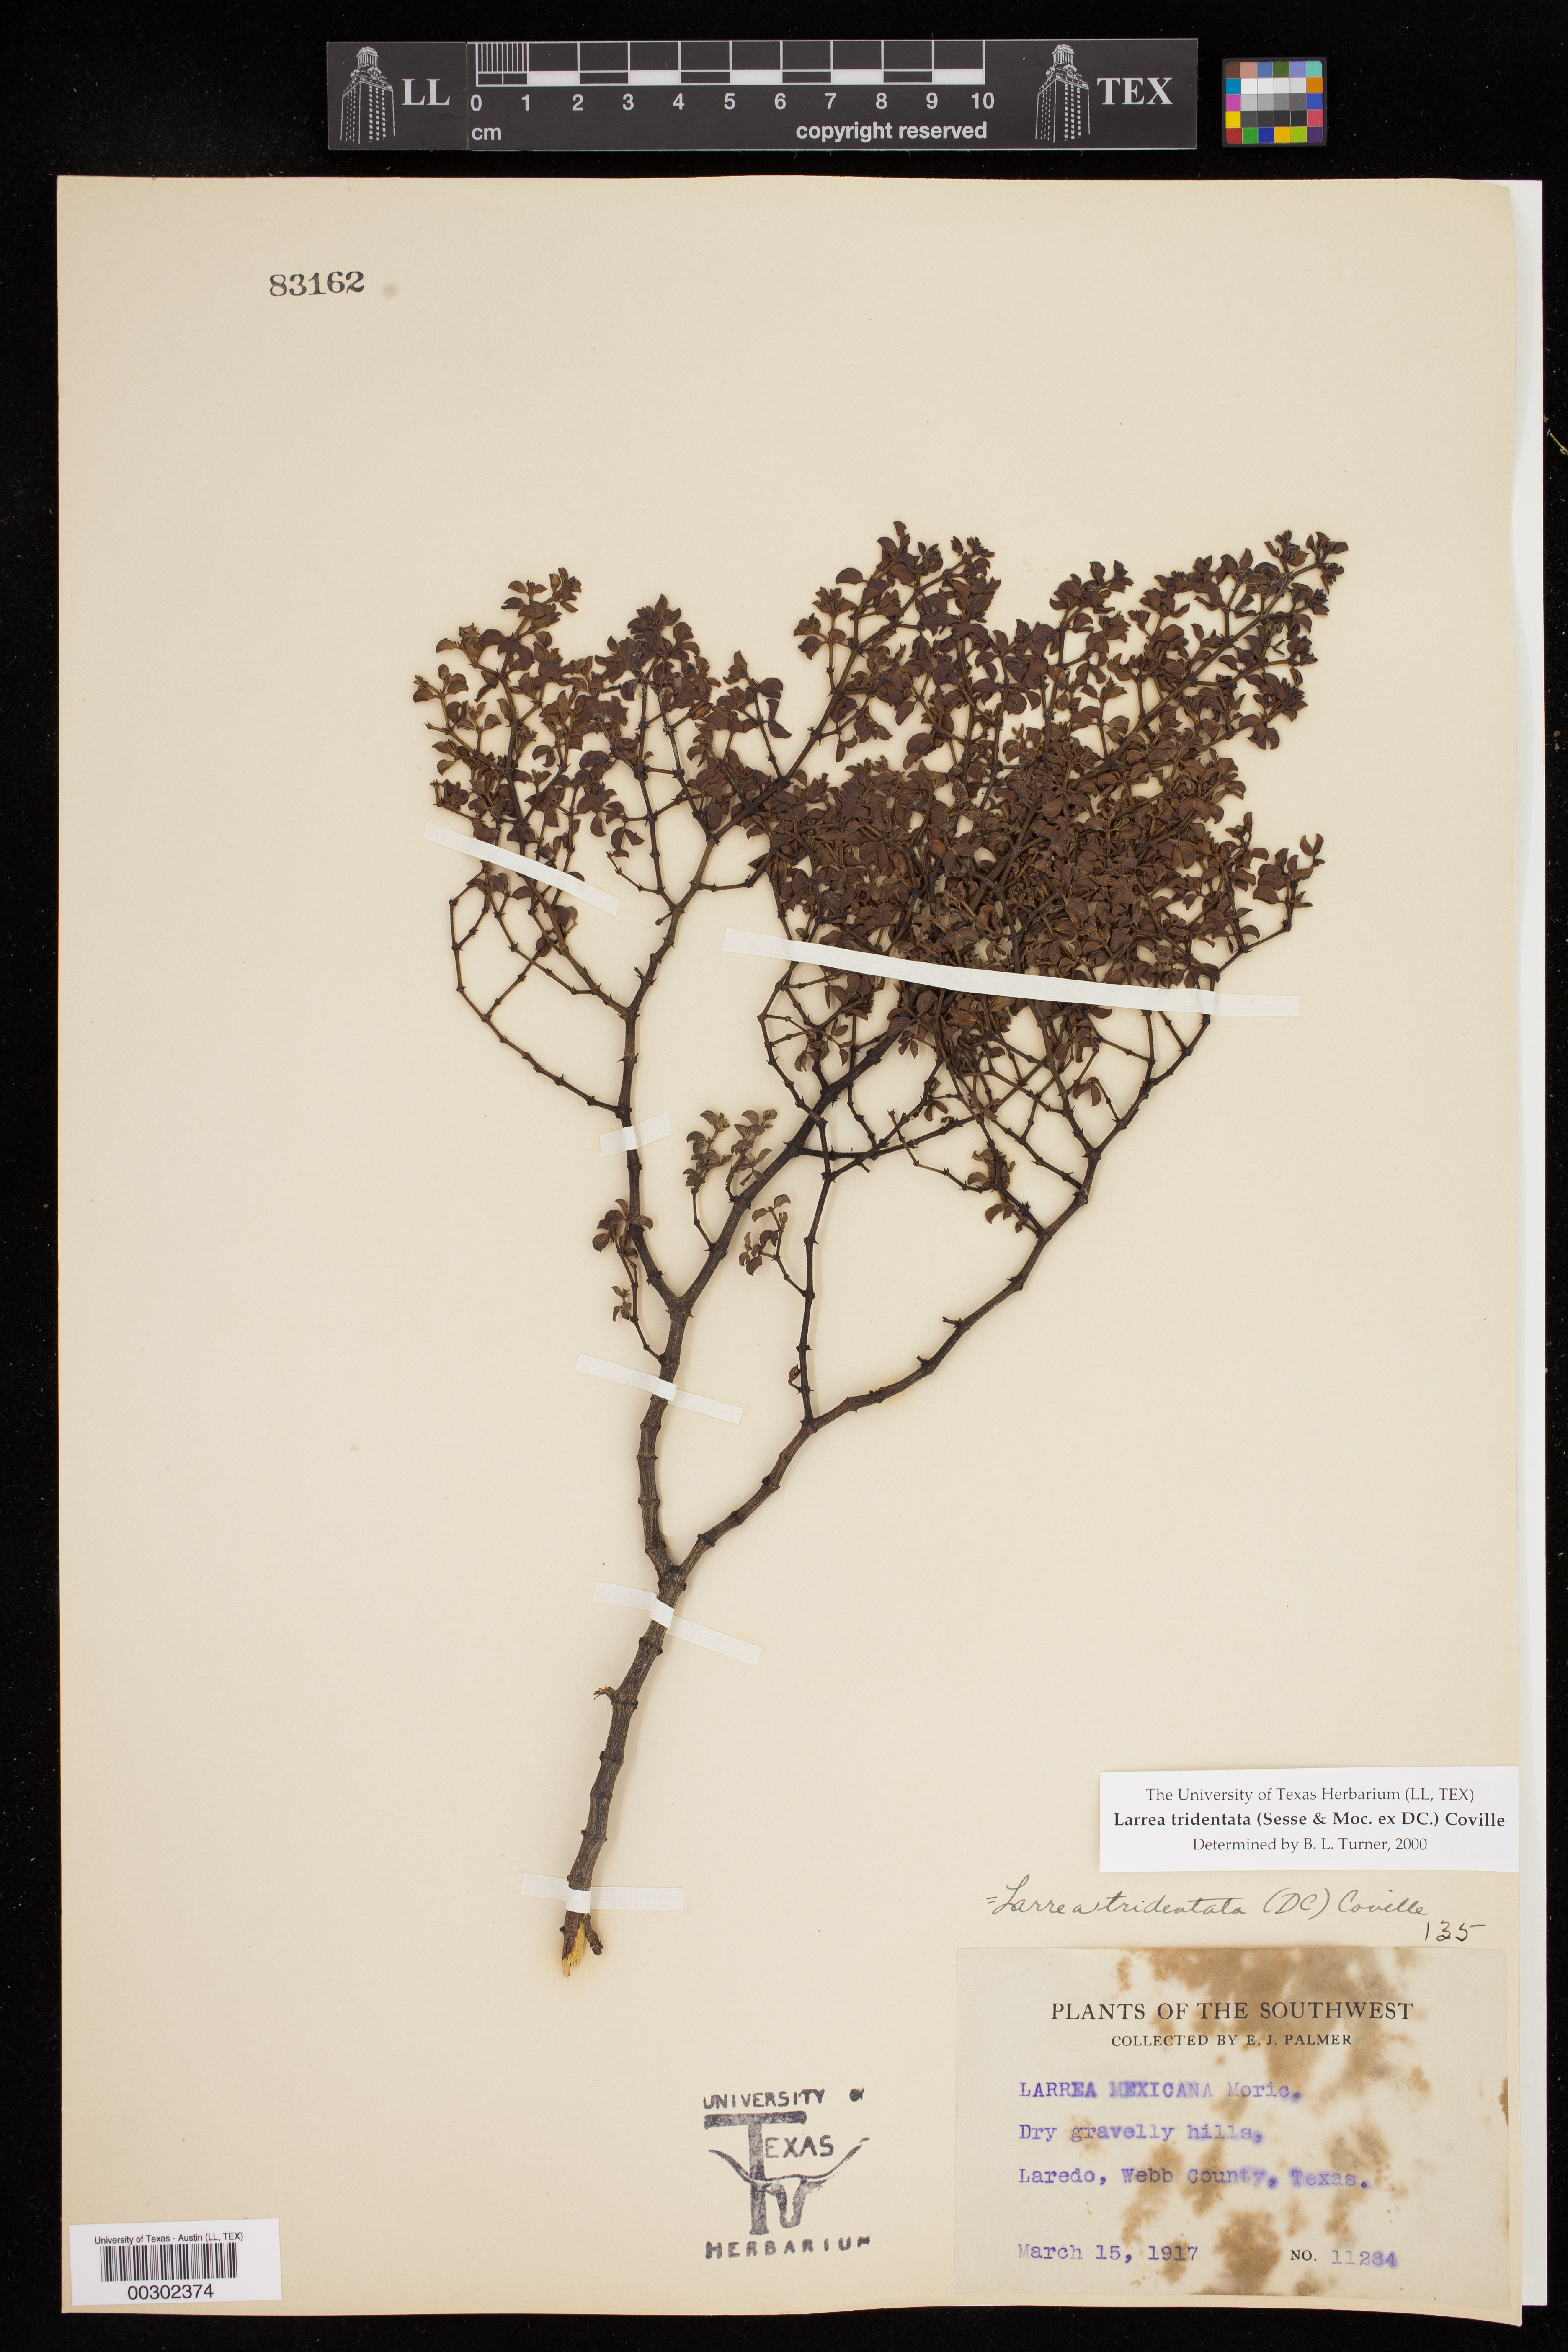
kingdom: Plantae
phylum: Tracheophyta
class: Magnoliopsida
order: Zygophyllales
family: Zygophyllaceae
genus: Larrea
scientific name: Larrea tridentata
